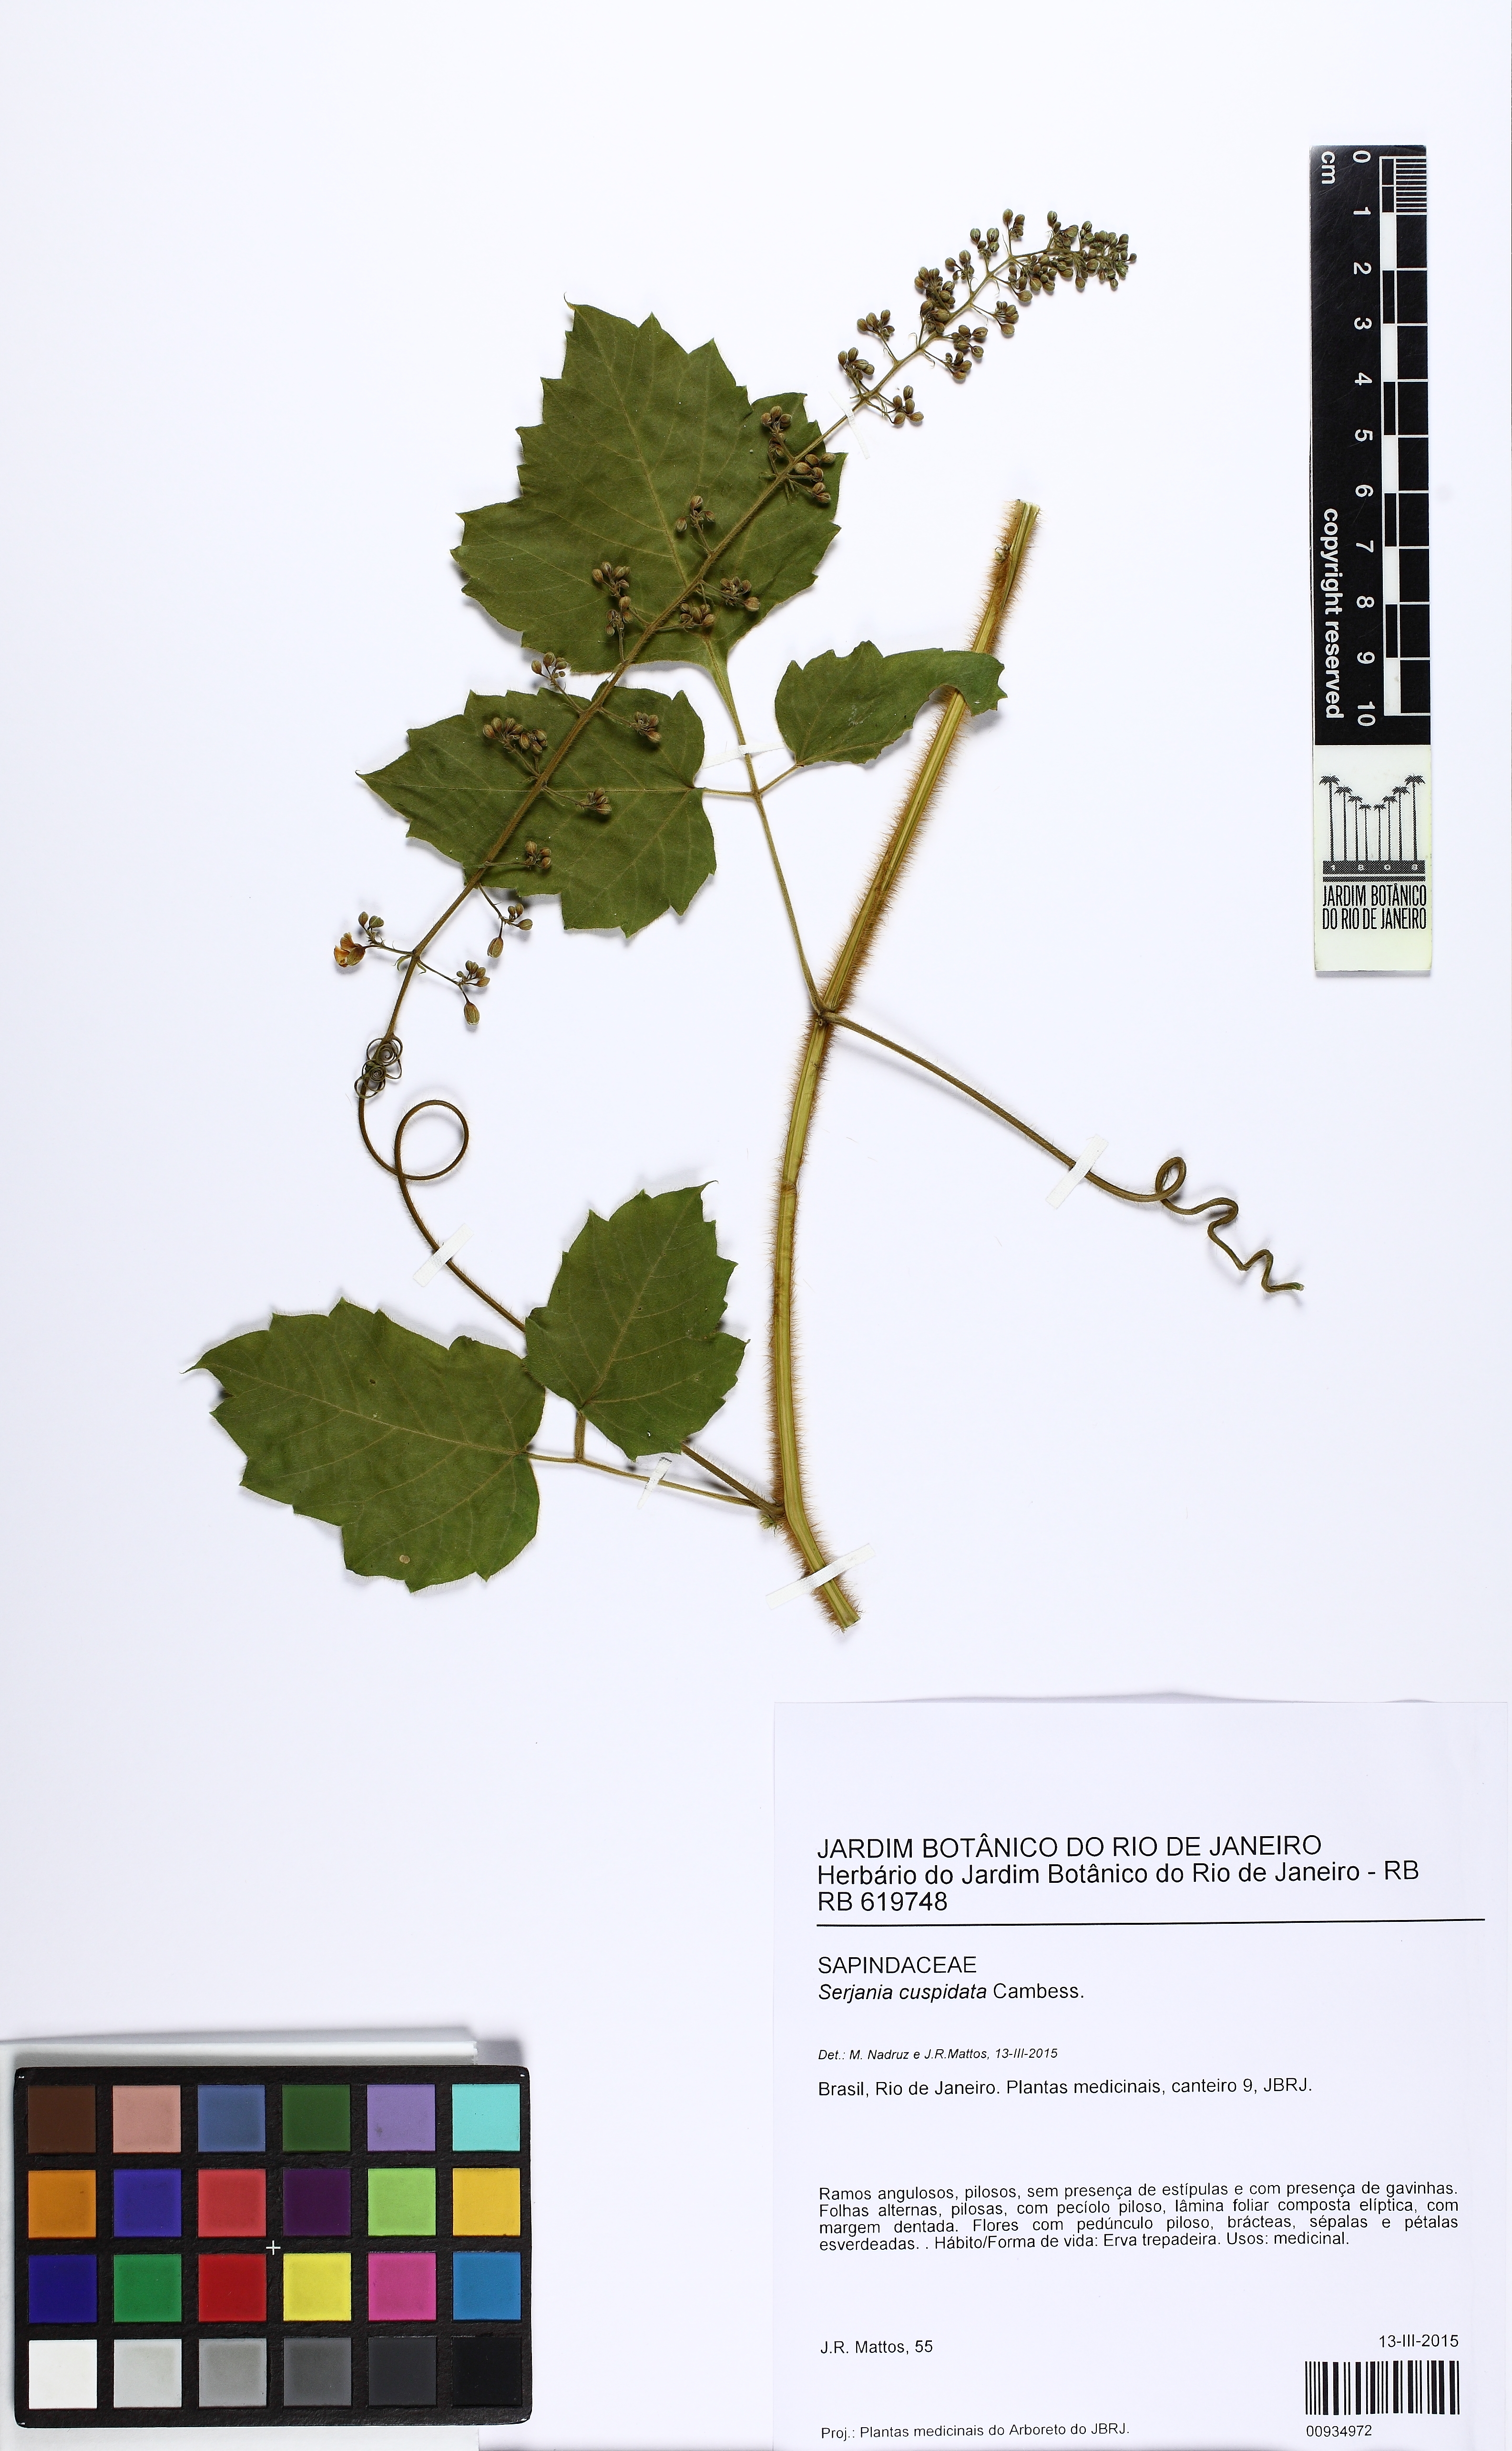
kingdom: Plantae
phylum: Tracheophyta
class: Magnoliopsida
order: Sapindales
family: Sapindaceae
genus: Serjania
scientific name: Serjania ferruginea
